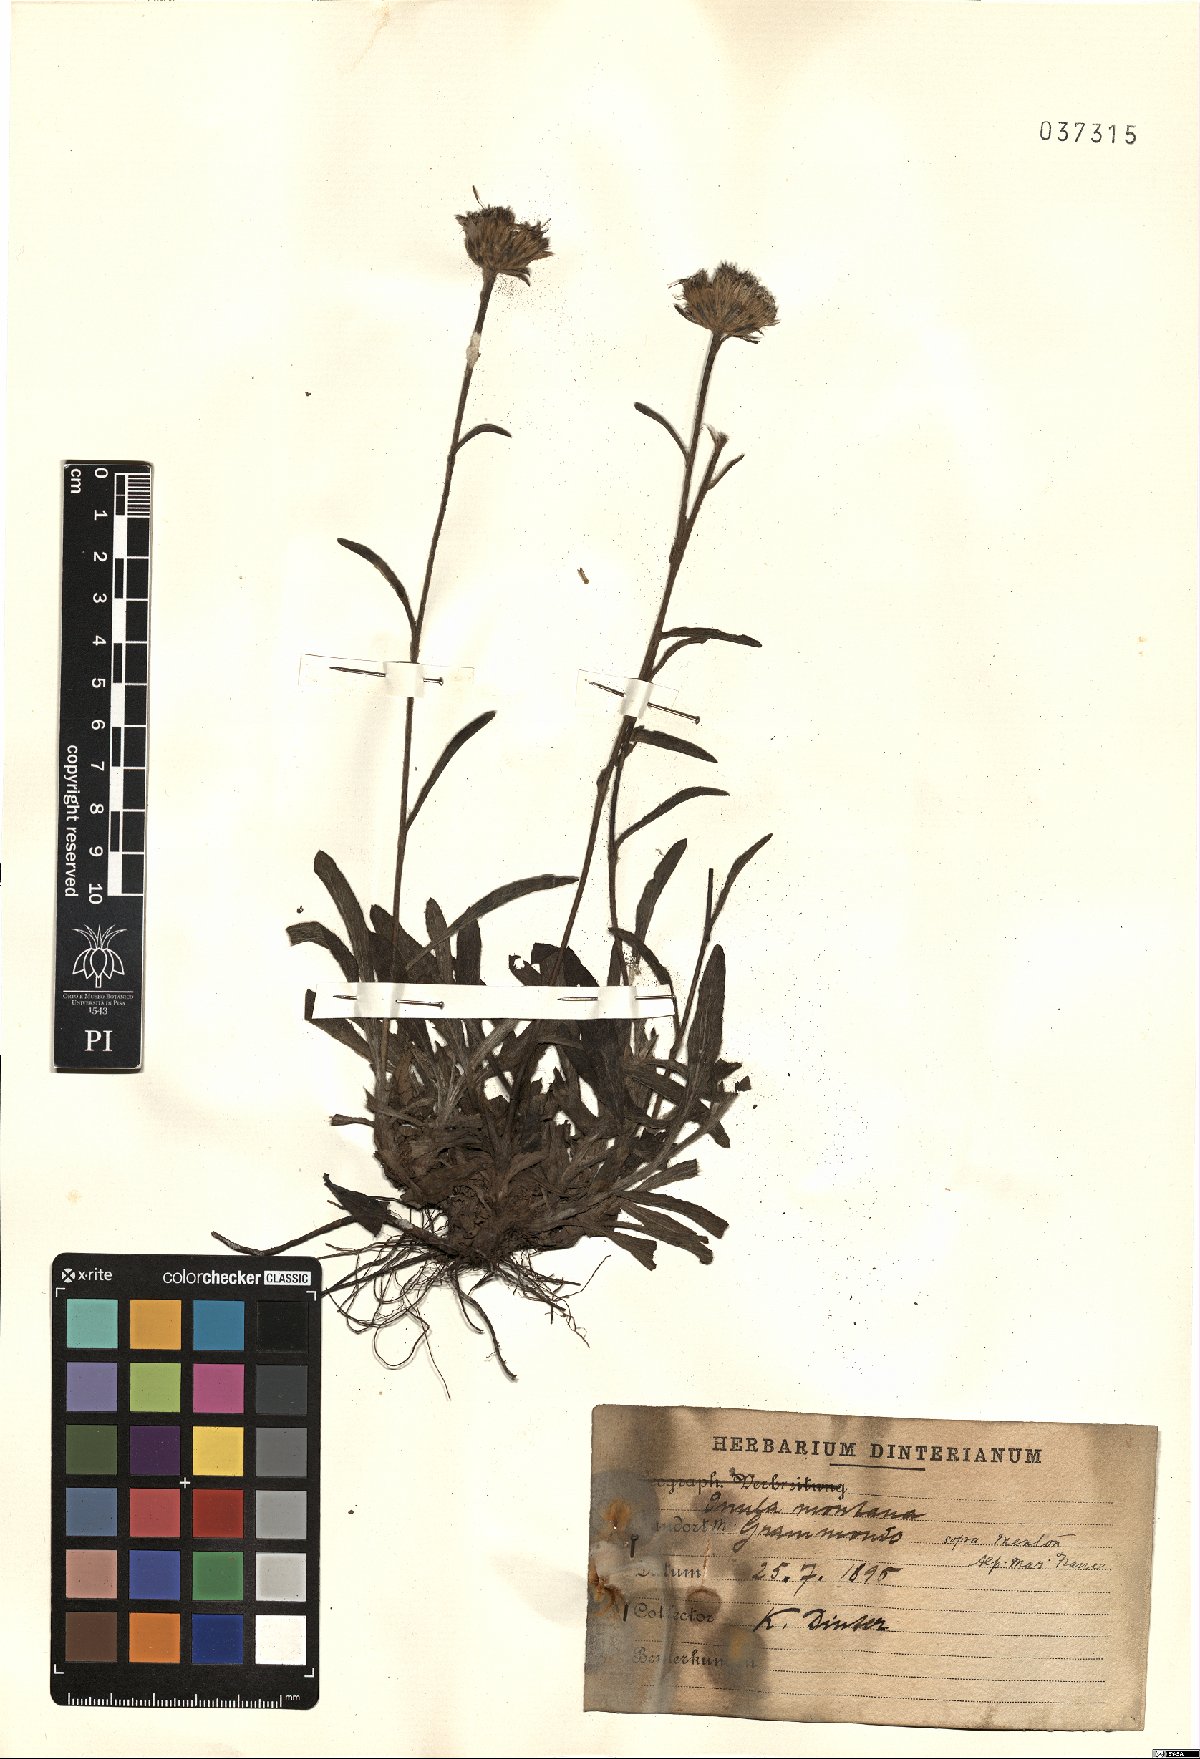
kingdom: Plantae
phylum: Tracheophyta
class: Magnoliopsida
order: Asterales
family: Asteraceae
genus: Pentanema
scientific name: Pentanema montanum
